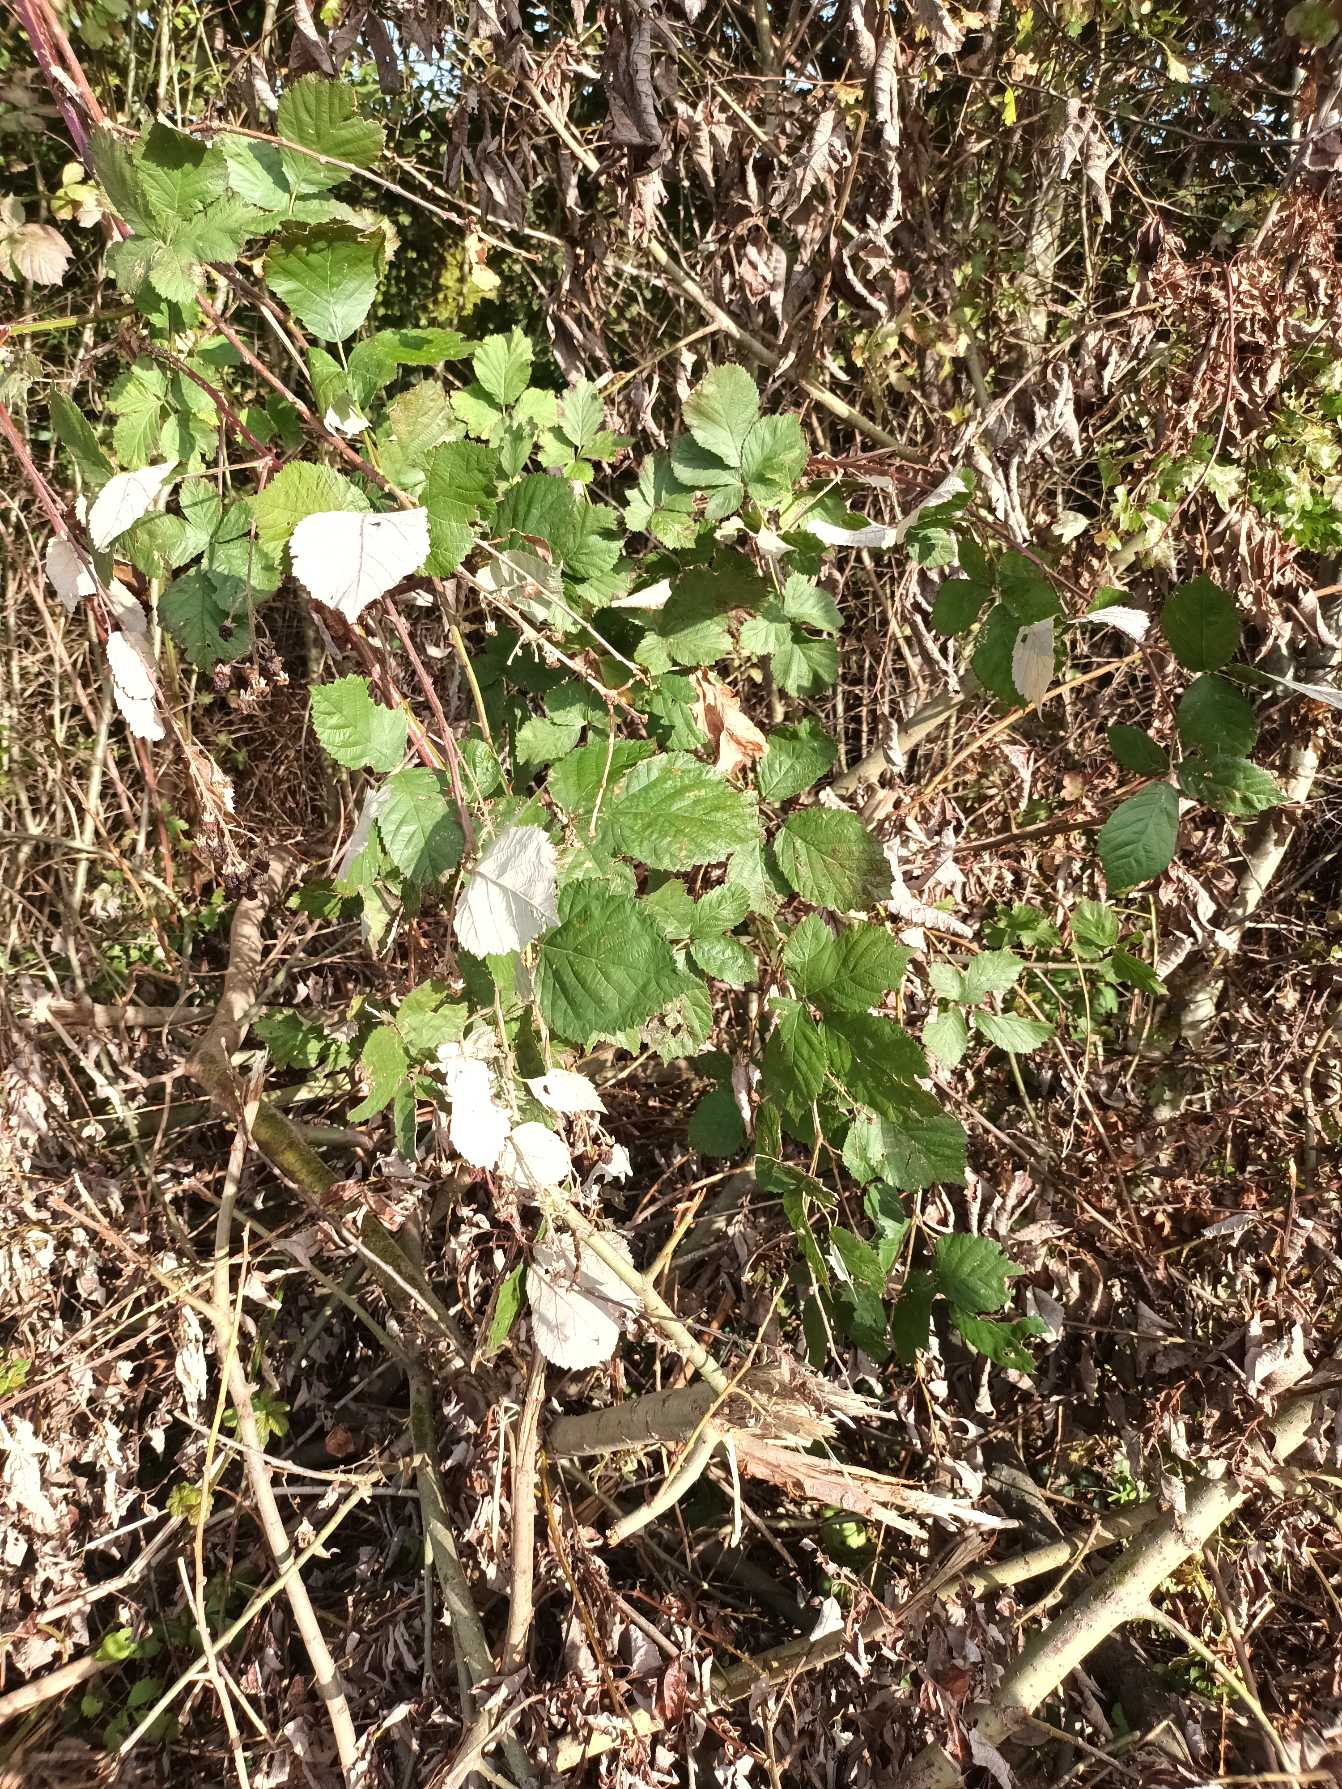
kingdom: Plantae
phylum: Tracheophyta
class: Magnoliopsida
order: Rosales
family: Rosaceae
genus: Rubus
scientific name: Rubus armeniacus
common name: Armensk brombær
